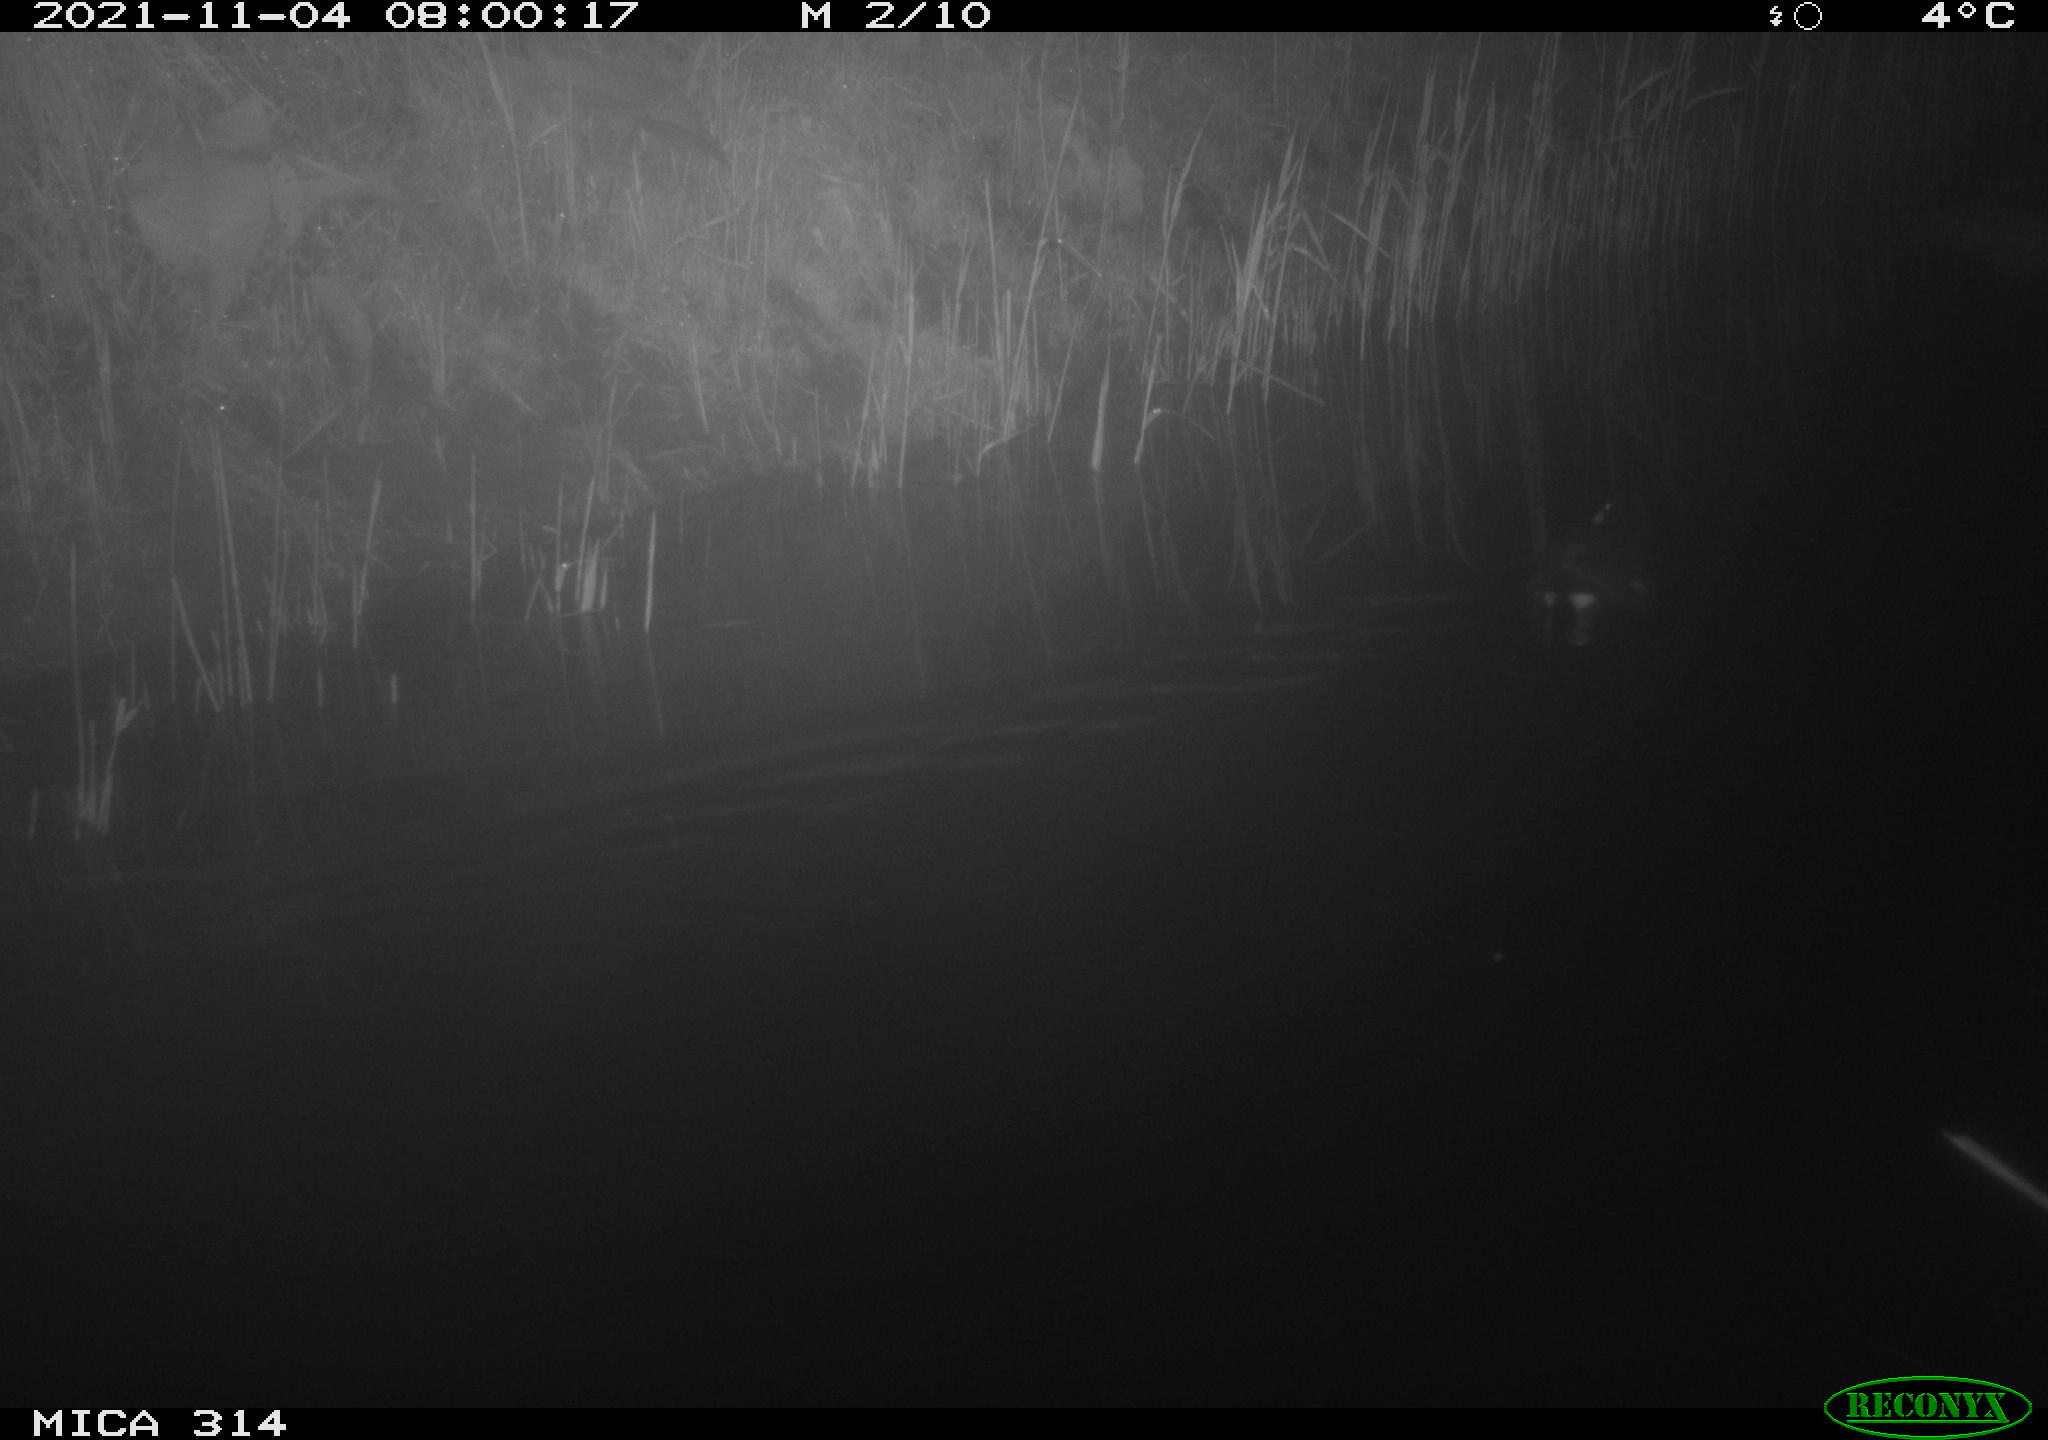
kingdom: Animalia
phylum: Chordata
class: Aves
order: Gruiformes
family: Rallidae
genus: Gallinula
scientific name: Gallinula chloropus
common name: Common moorhen
